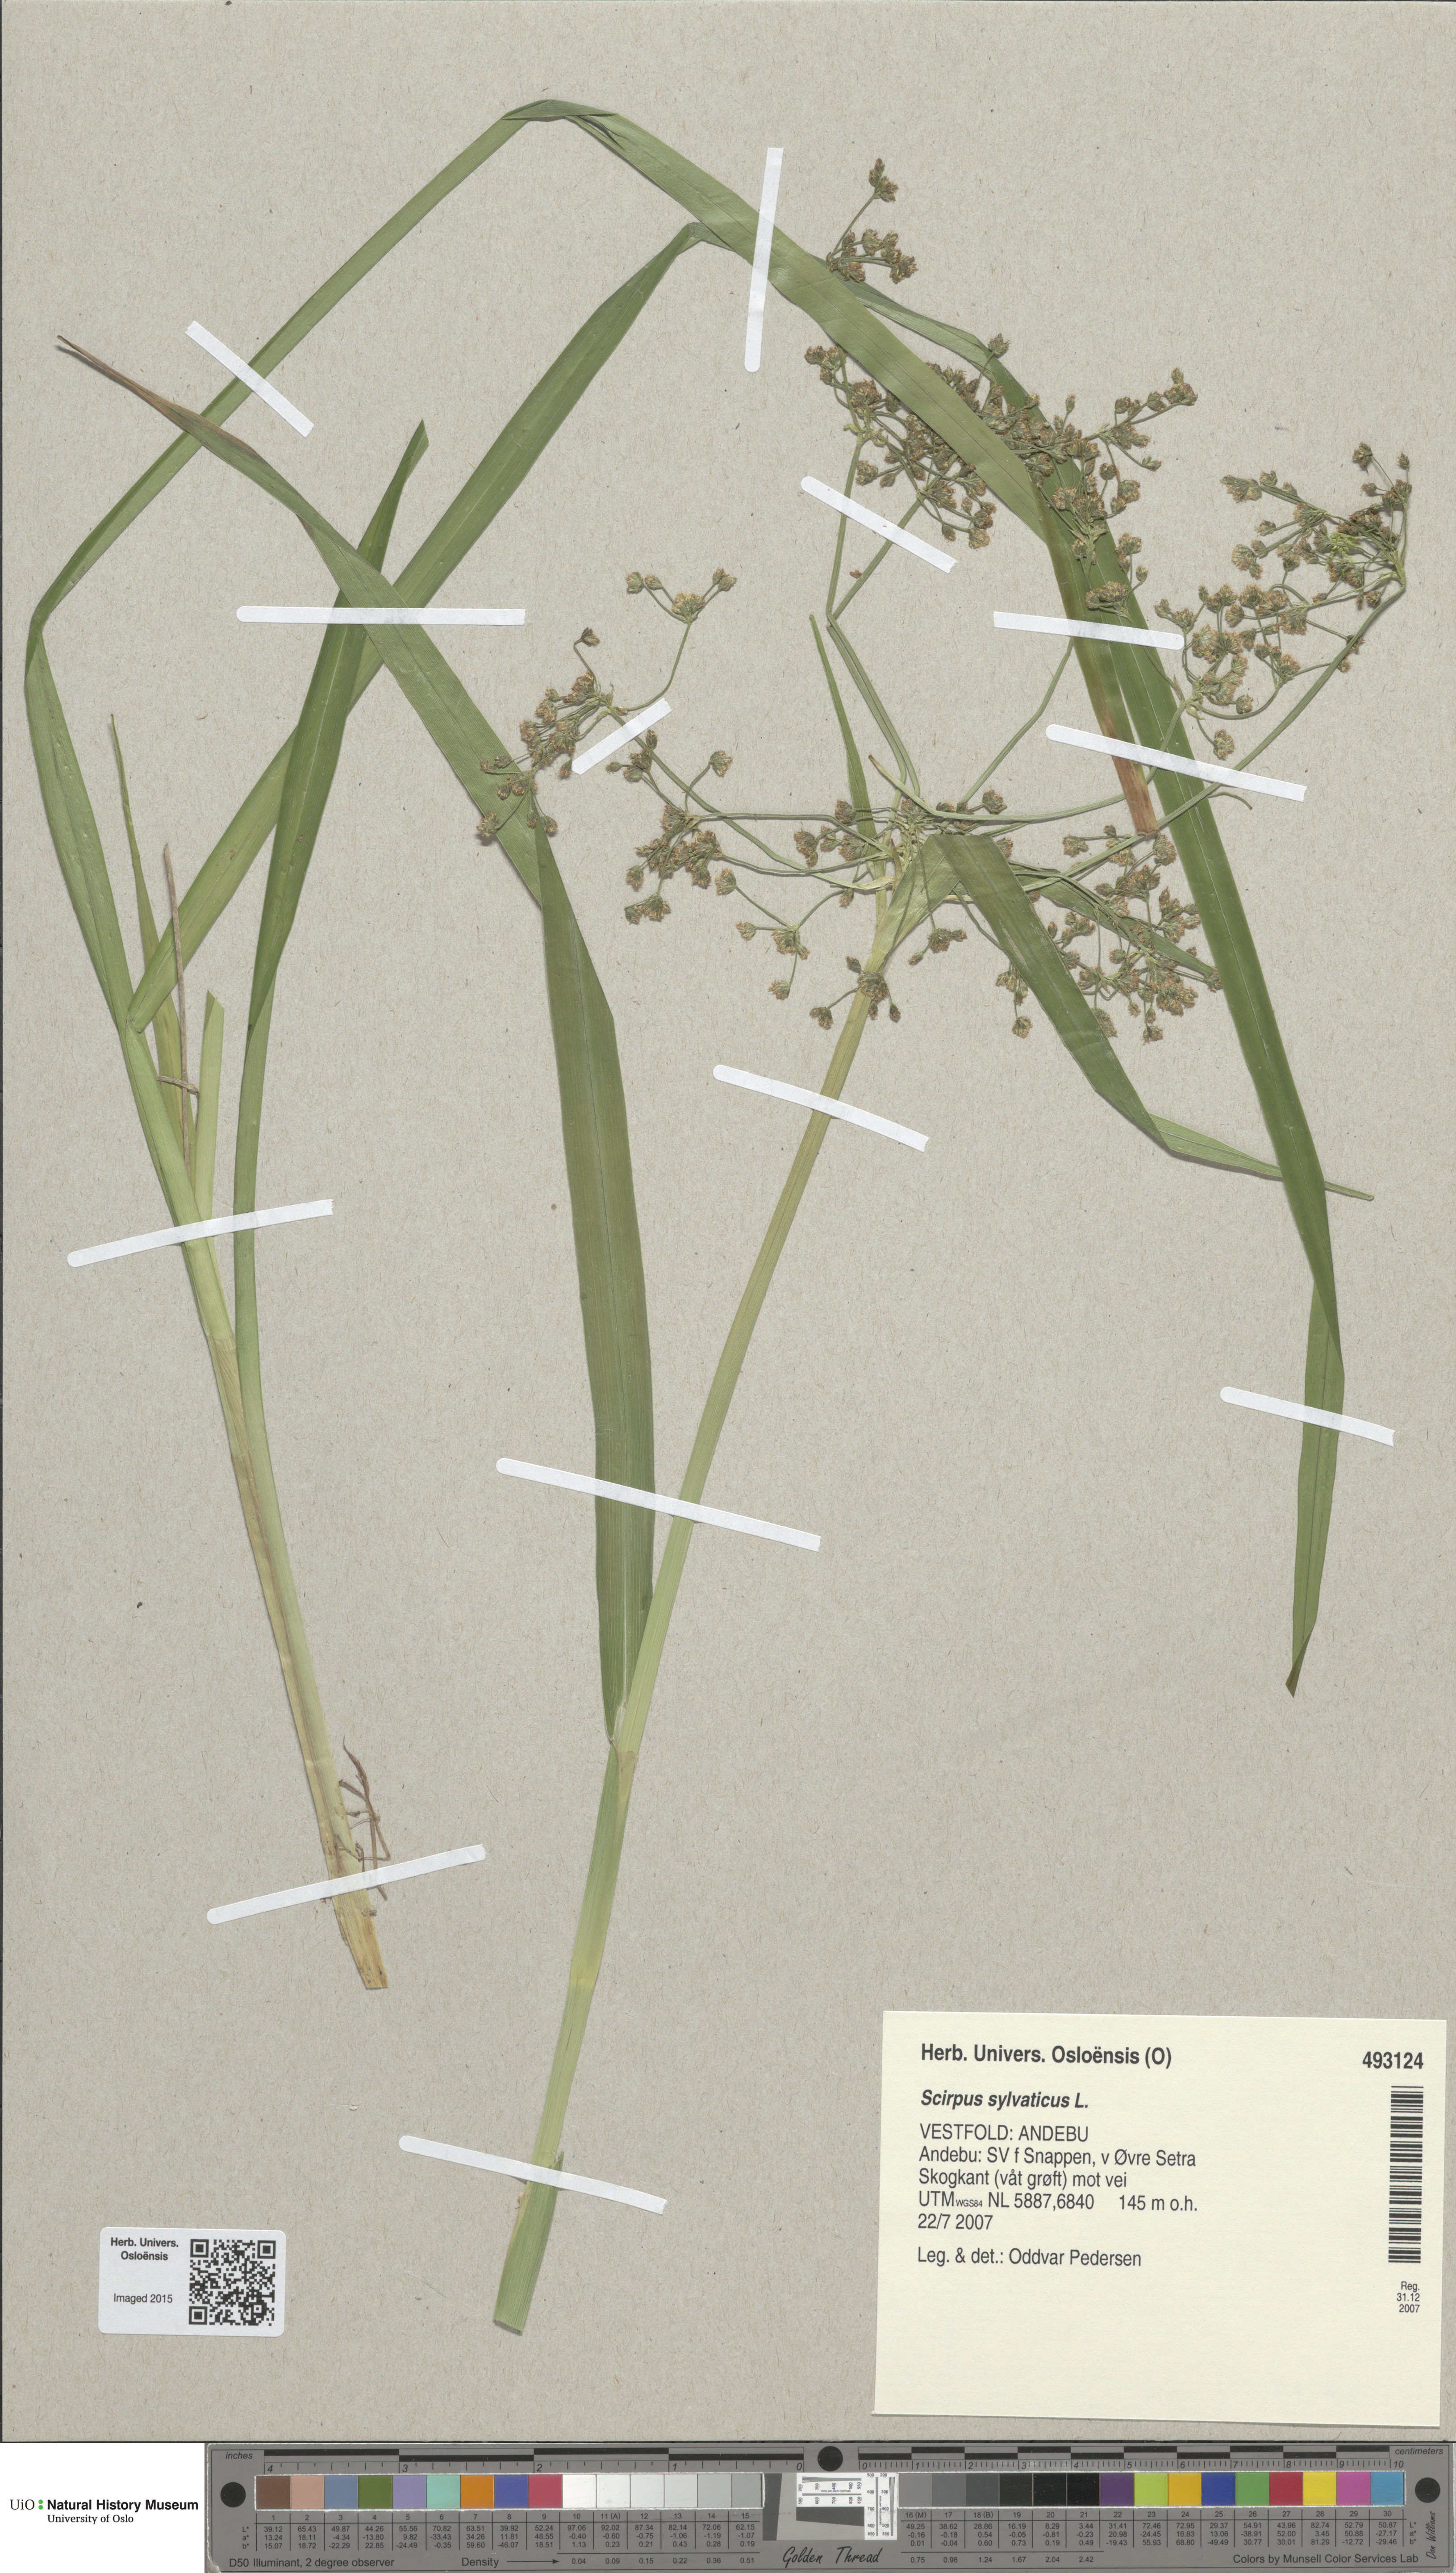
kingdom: Plantae
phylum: Tracheophyta
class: Liliopsida
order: Poales
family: Cyperaceae
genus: Scirpus
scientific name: Scirpus sylvaticus
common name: Wood club-rush
